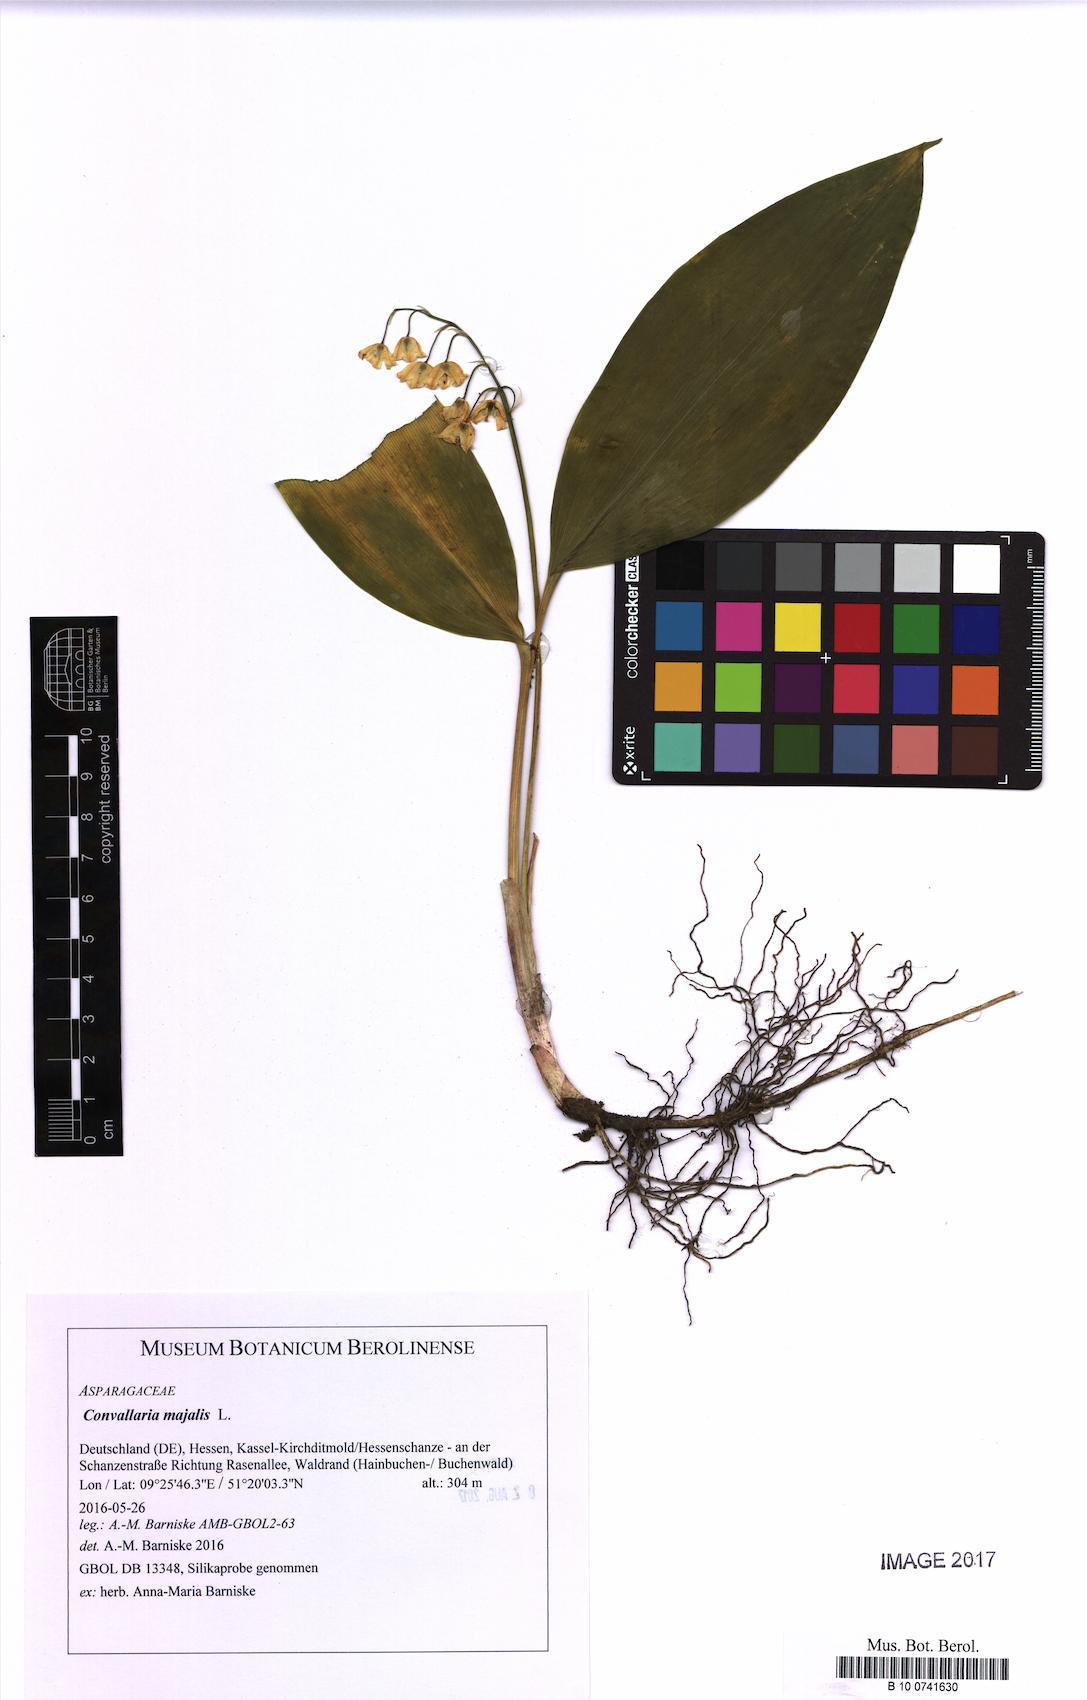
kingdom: Plantae
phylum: Tracheophyta
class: Liliopsida
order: Asparagales
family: Asparagaceae
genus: Convallaria
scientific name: Convallaria majalis
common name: Lily-of-the-valley
